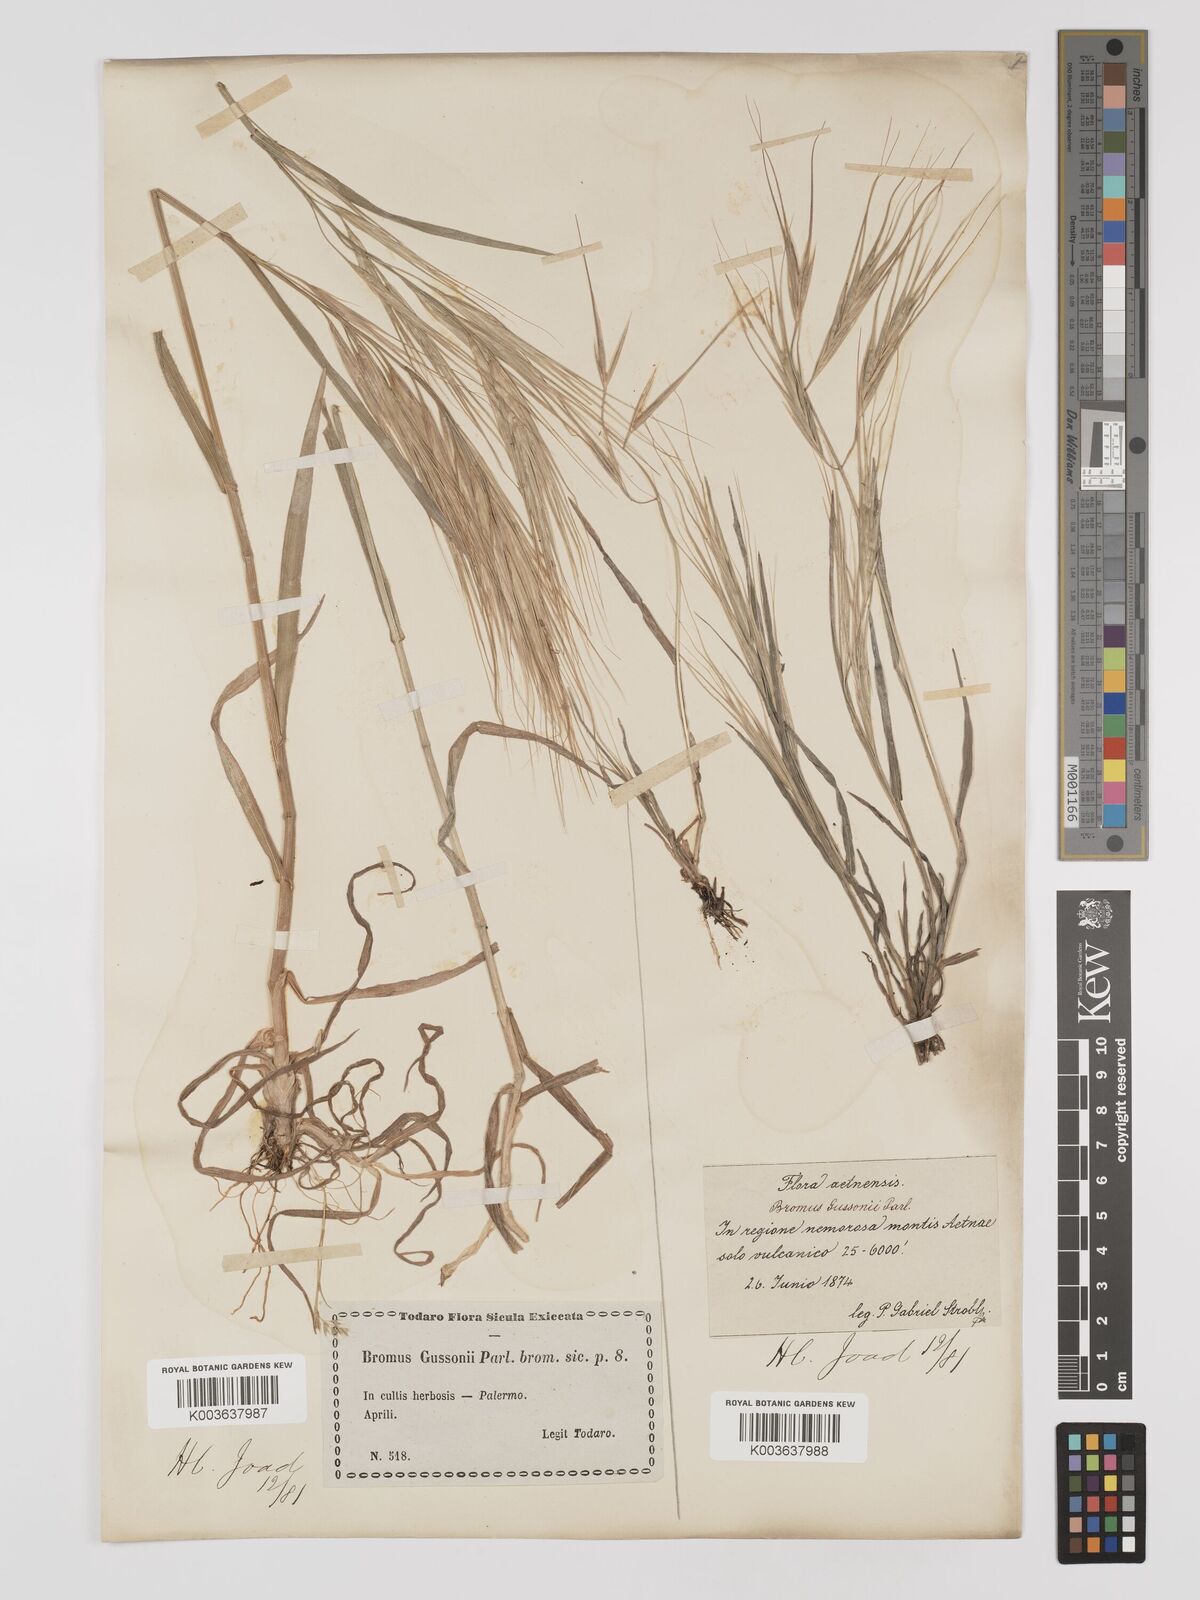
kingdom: Plantae
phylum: Tracheophyta
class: Liliopsida
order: Poales
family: Poaceae
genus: Bromus
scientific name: Bromus
